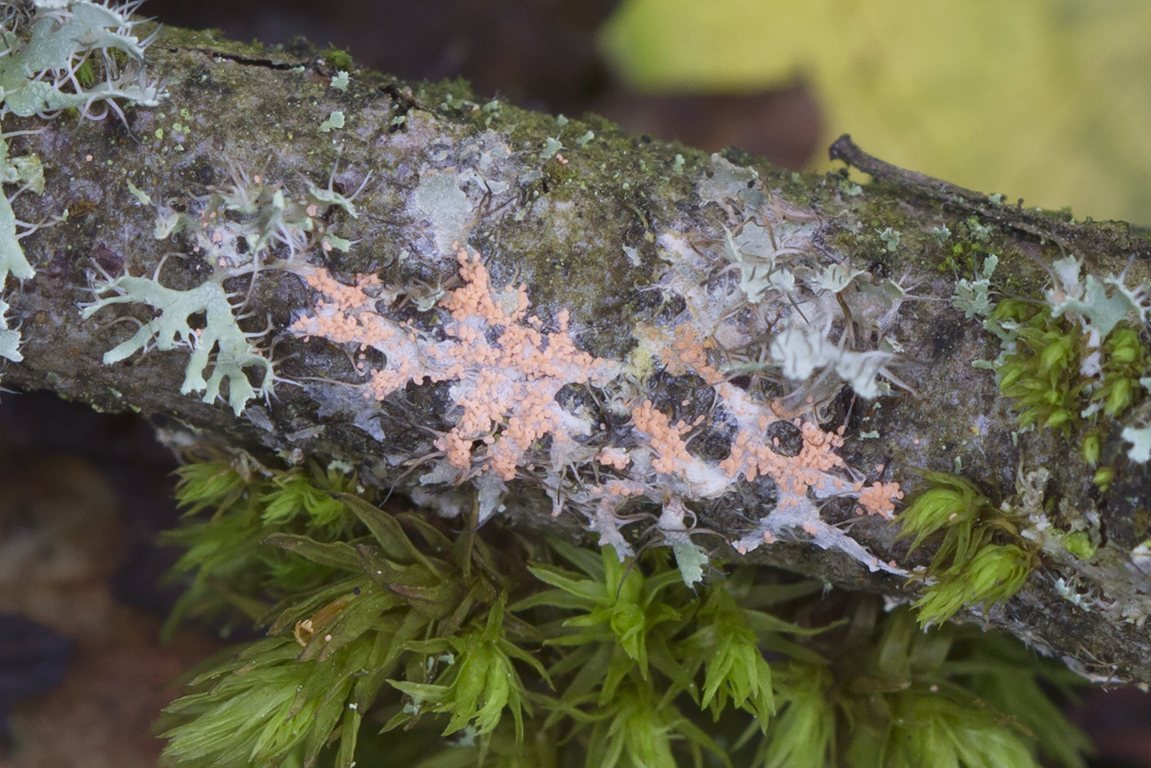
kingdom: Fungi
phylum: Basidiomycota
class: Agaricomycetes
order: Corticiales
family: Corticiaceae
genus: Erythricium
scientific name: Erythricium aurantiacum
